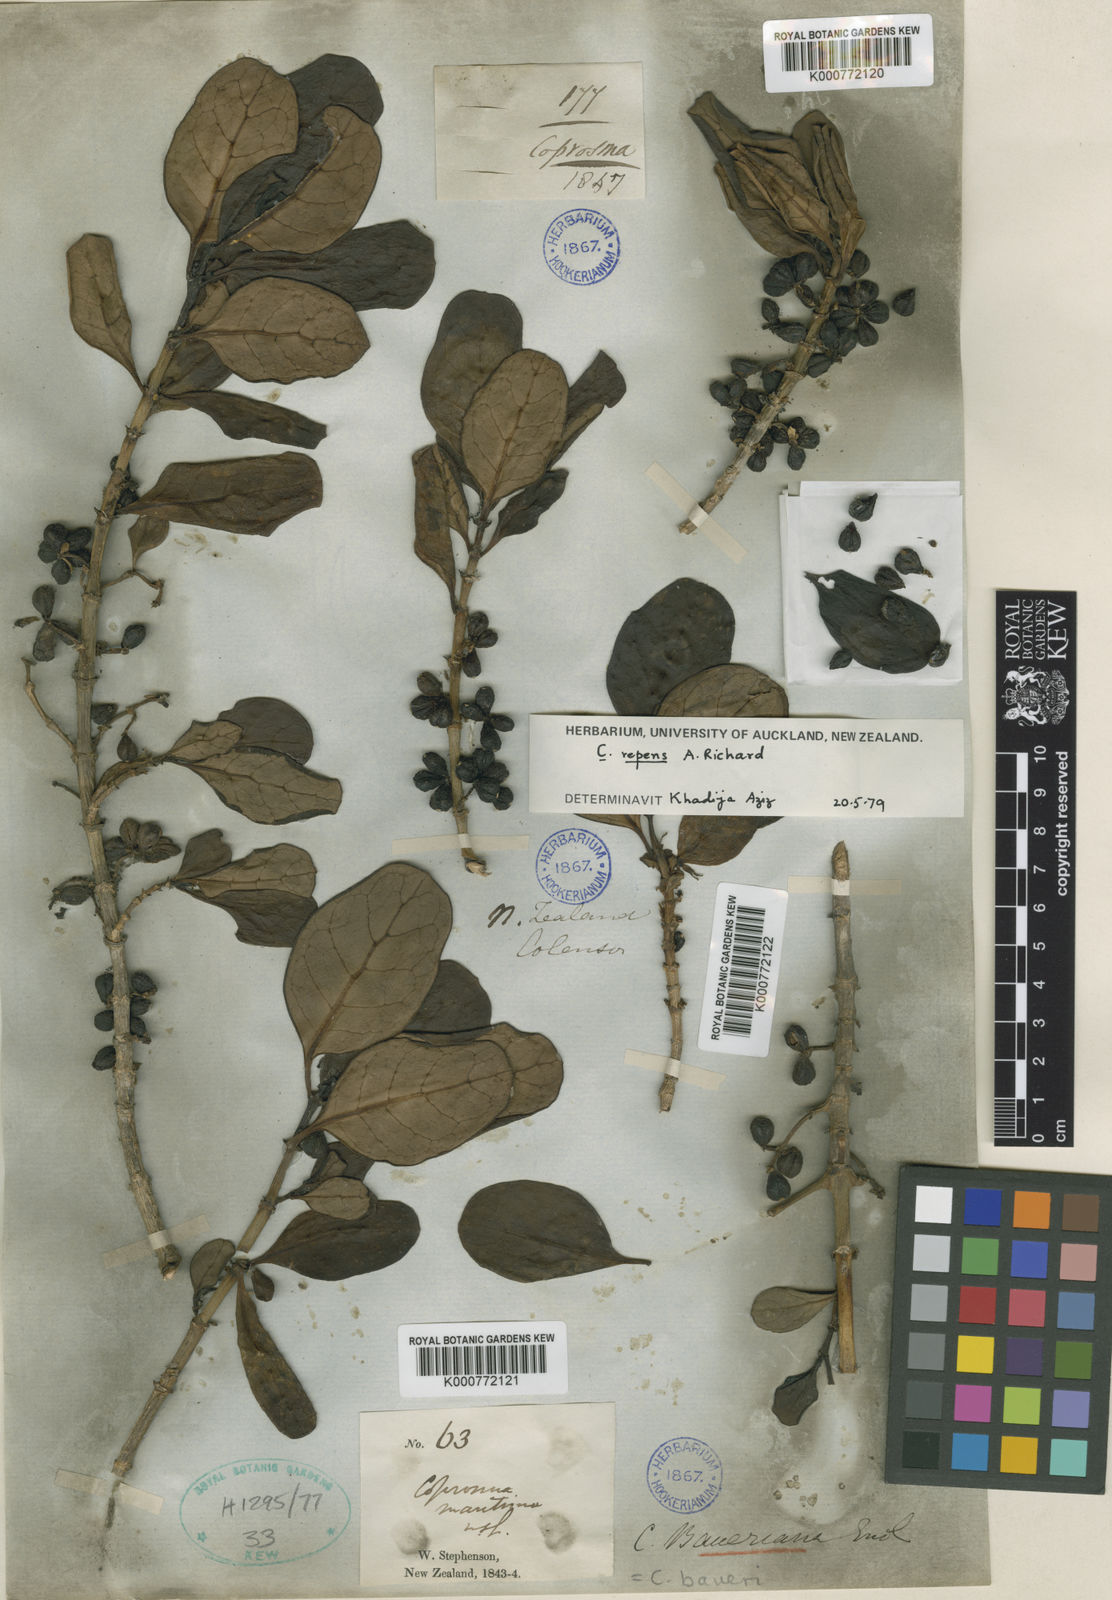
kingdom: Plantae
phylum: Tracheophyta
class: Magnoliopsida
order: Gentianales
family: Rubiaceae
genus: Coprosma
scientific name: Coprosma repens
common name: Tree bedstraw
